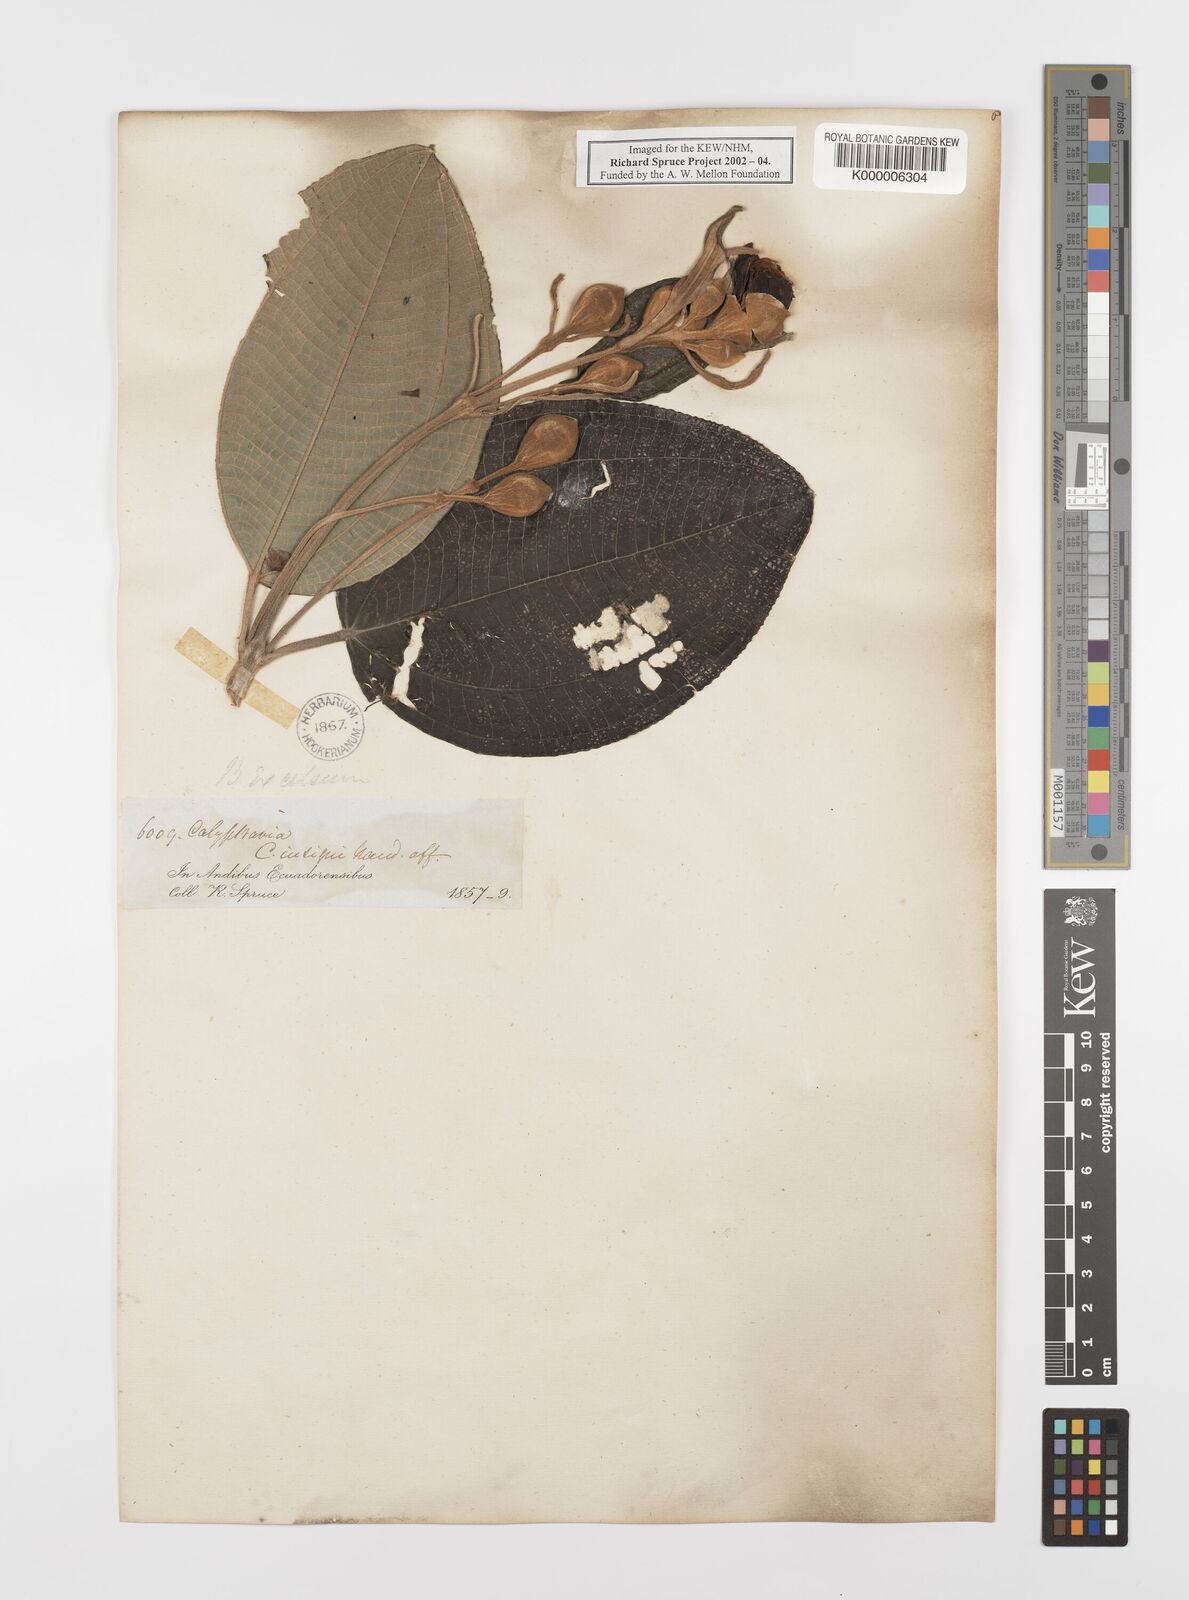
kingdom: Plantae
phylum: Tracheophyta
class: Magnoliopsida
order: Myrtales
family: Melastomataceae
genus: Meriania
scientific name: Meriania tomentosa
